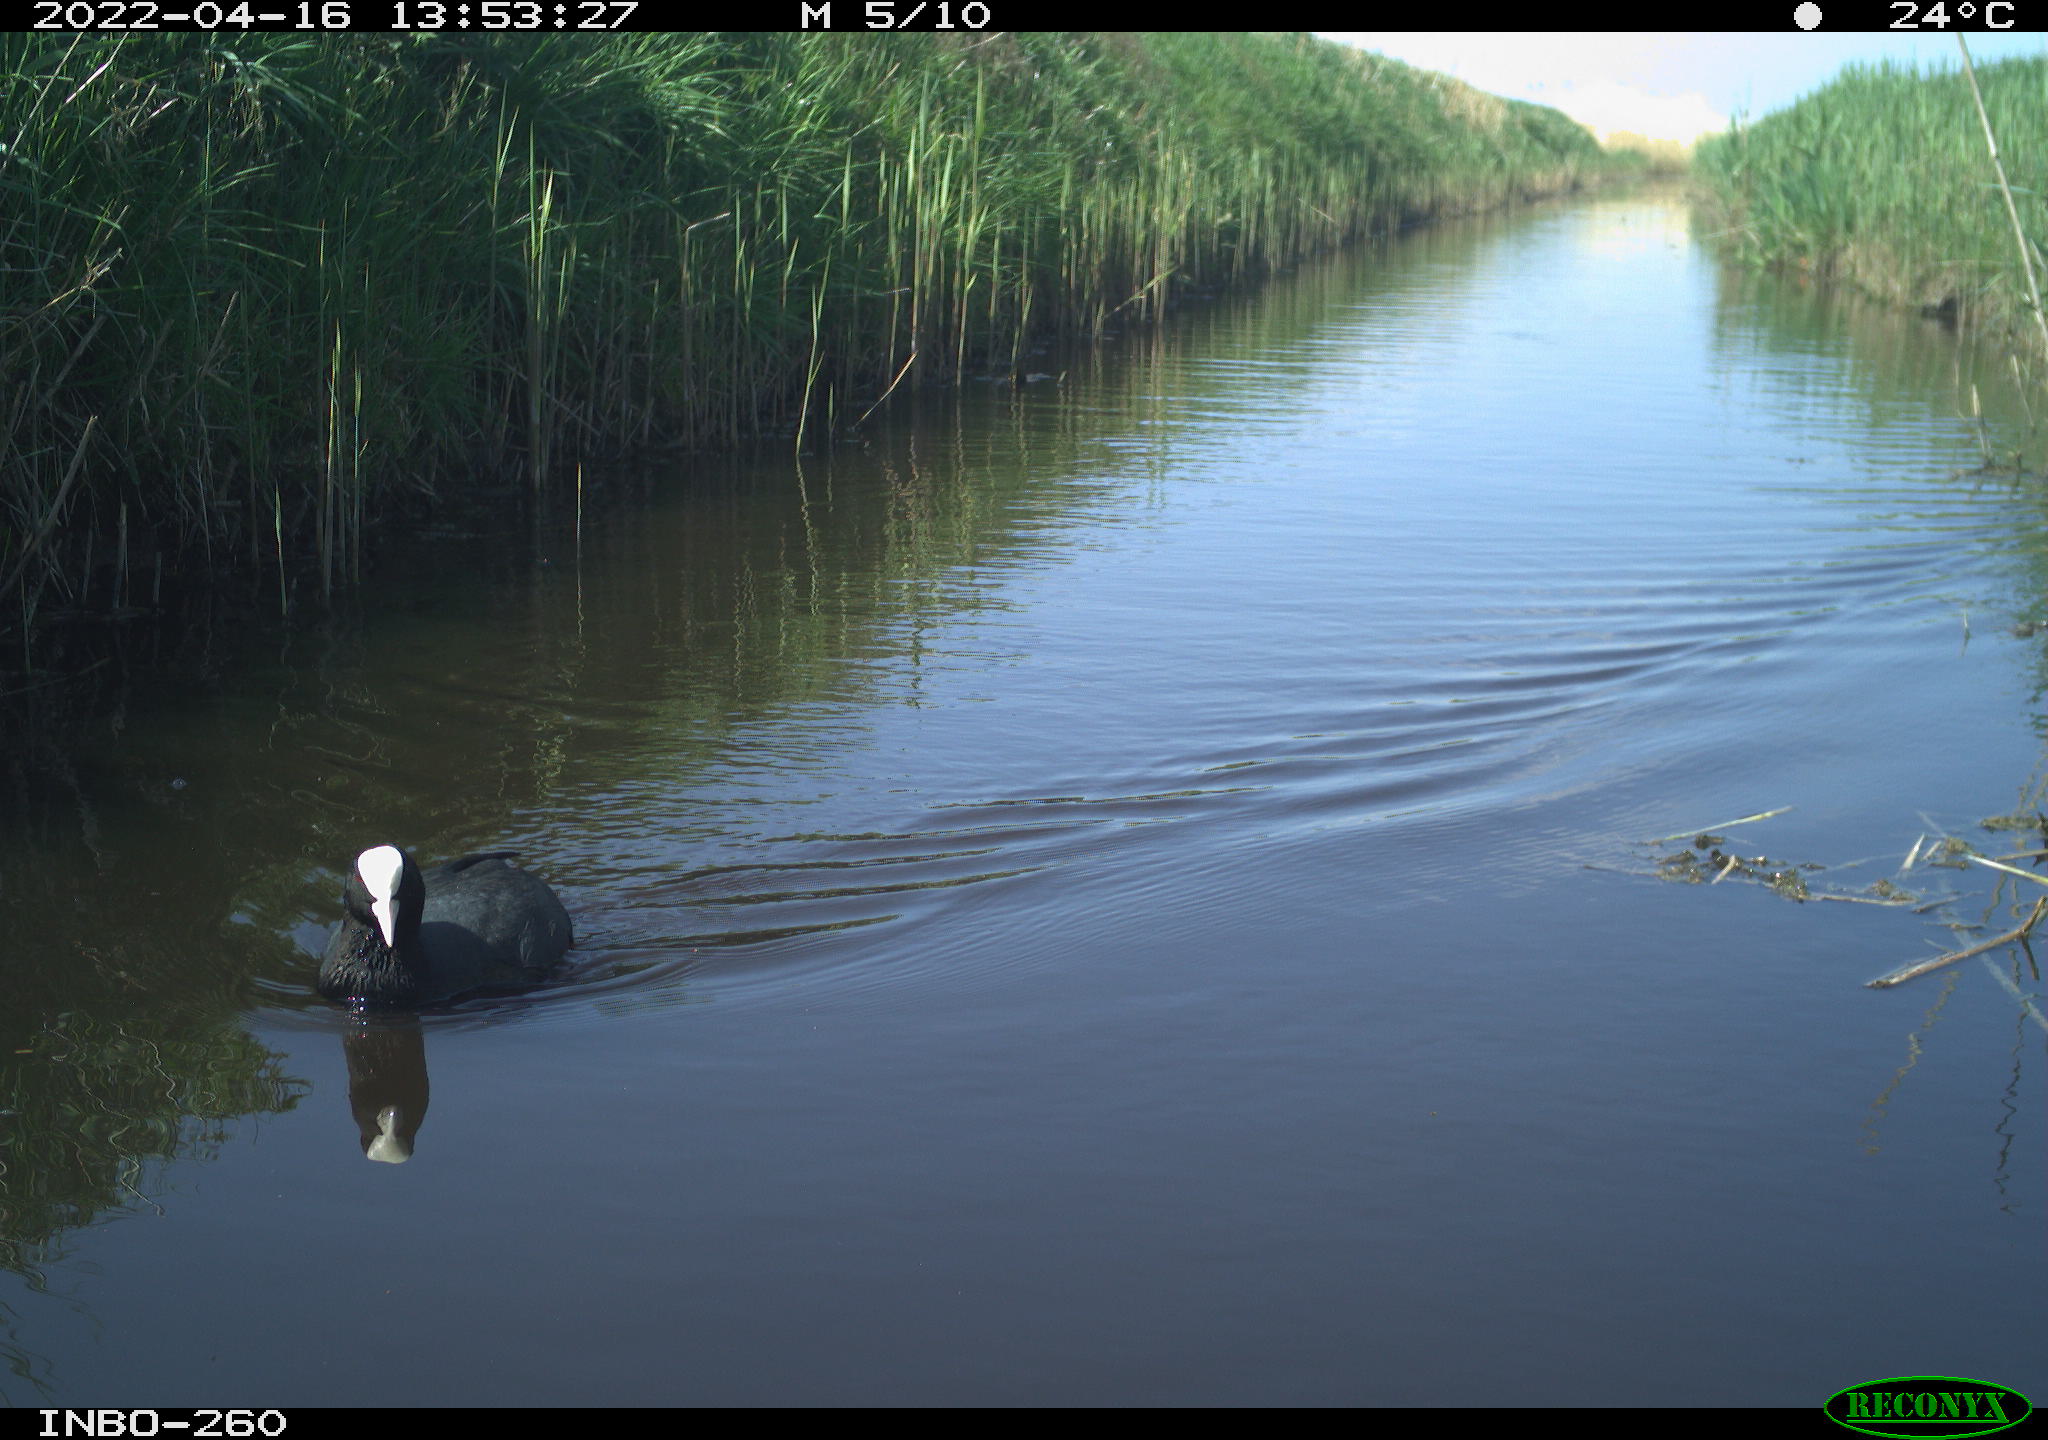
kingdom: Animalia
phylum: Chordata
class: Aves
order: Gruiformes
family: Rallidae
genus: Fulica
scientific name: Fulica atra
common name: Eurasian coot
